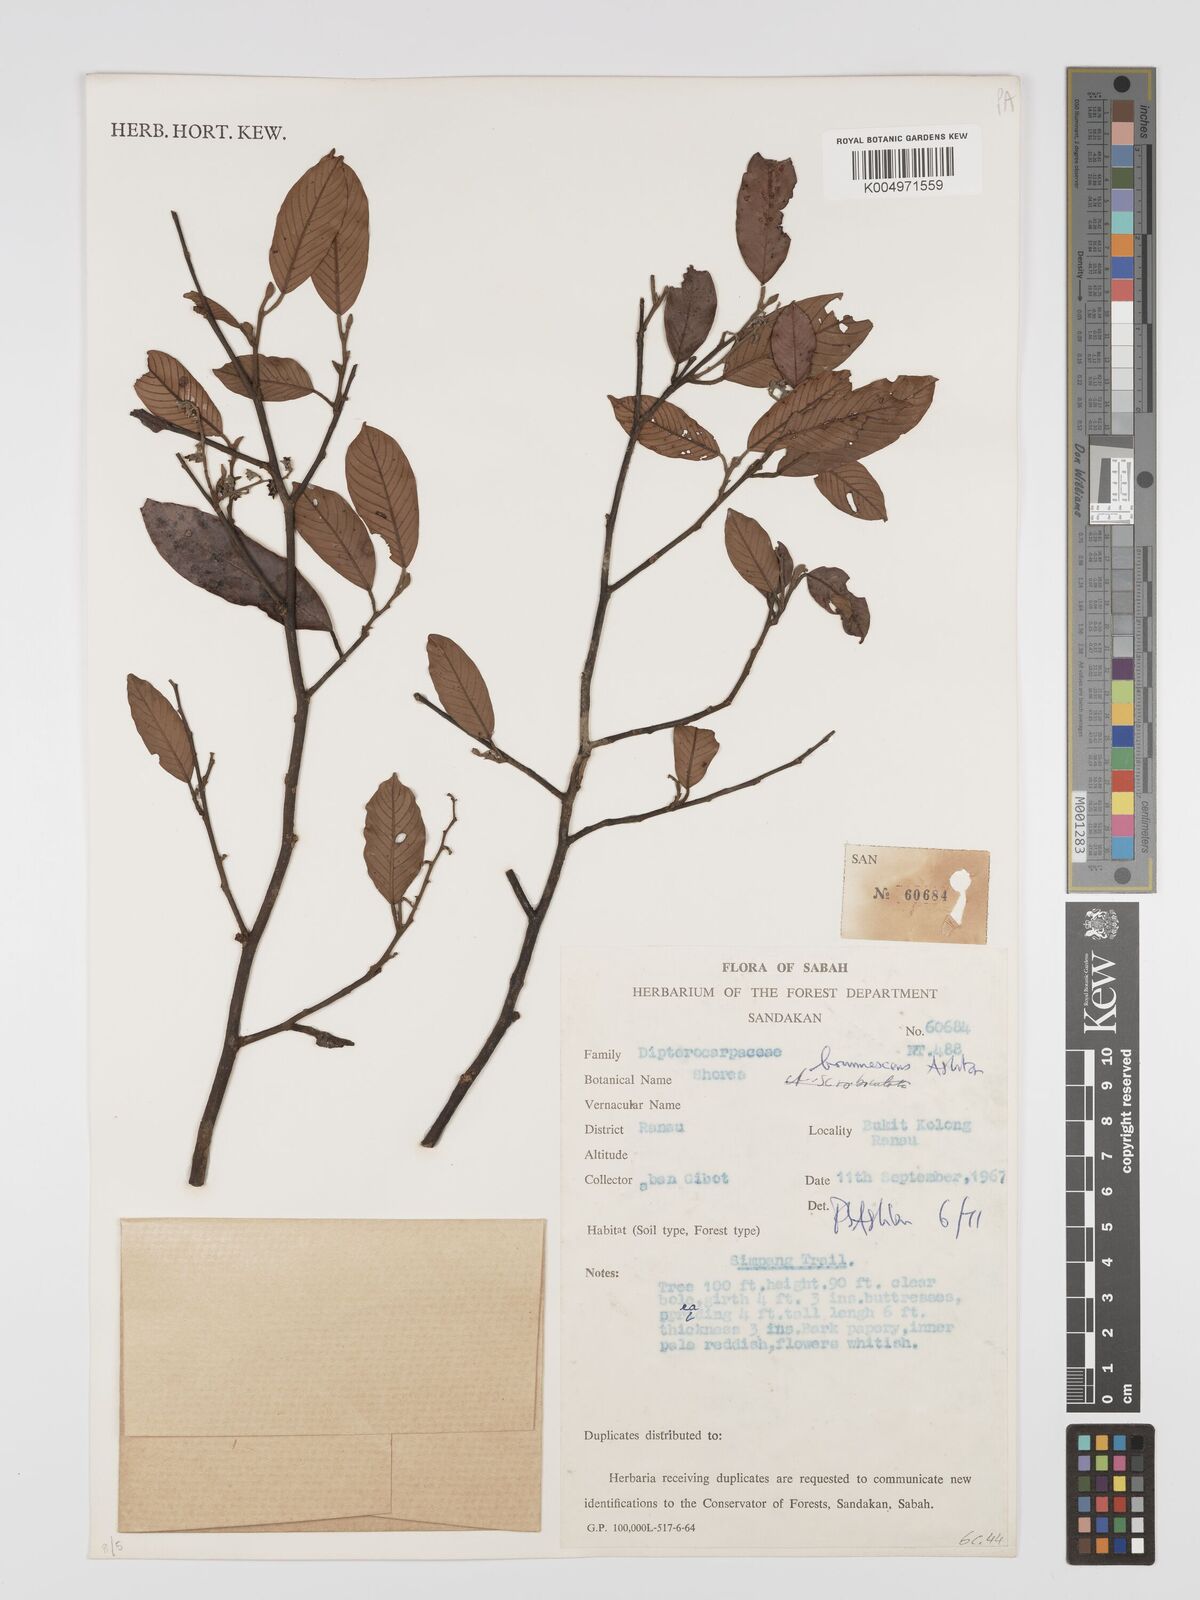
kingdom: Plantae
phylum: Tracheophyta
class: Magnoliopsida
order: Malvales
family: Dipterocarpaceae
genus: Shorea
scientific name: Shorea brunnescens
